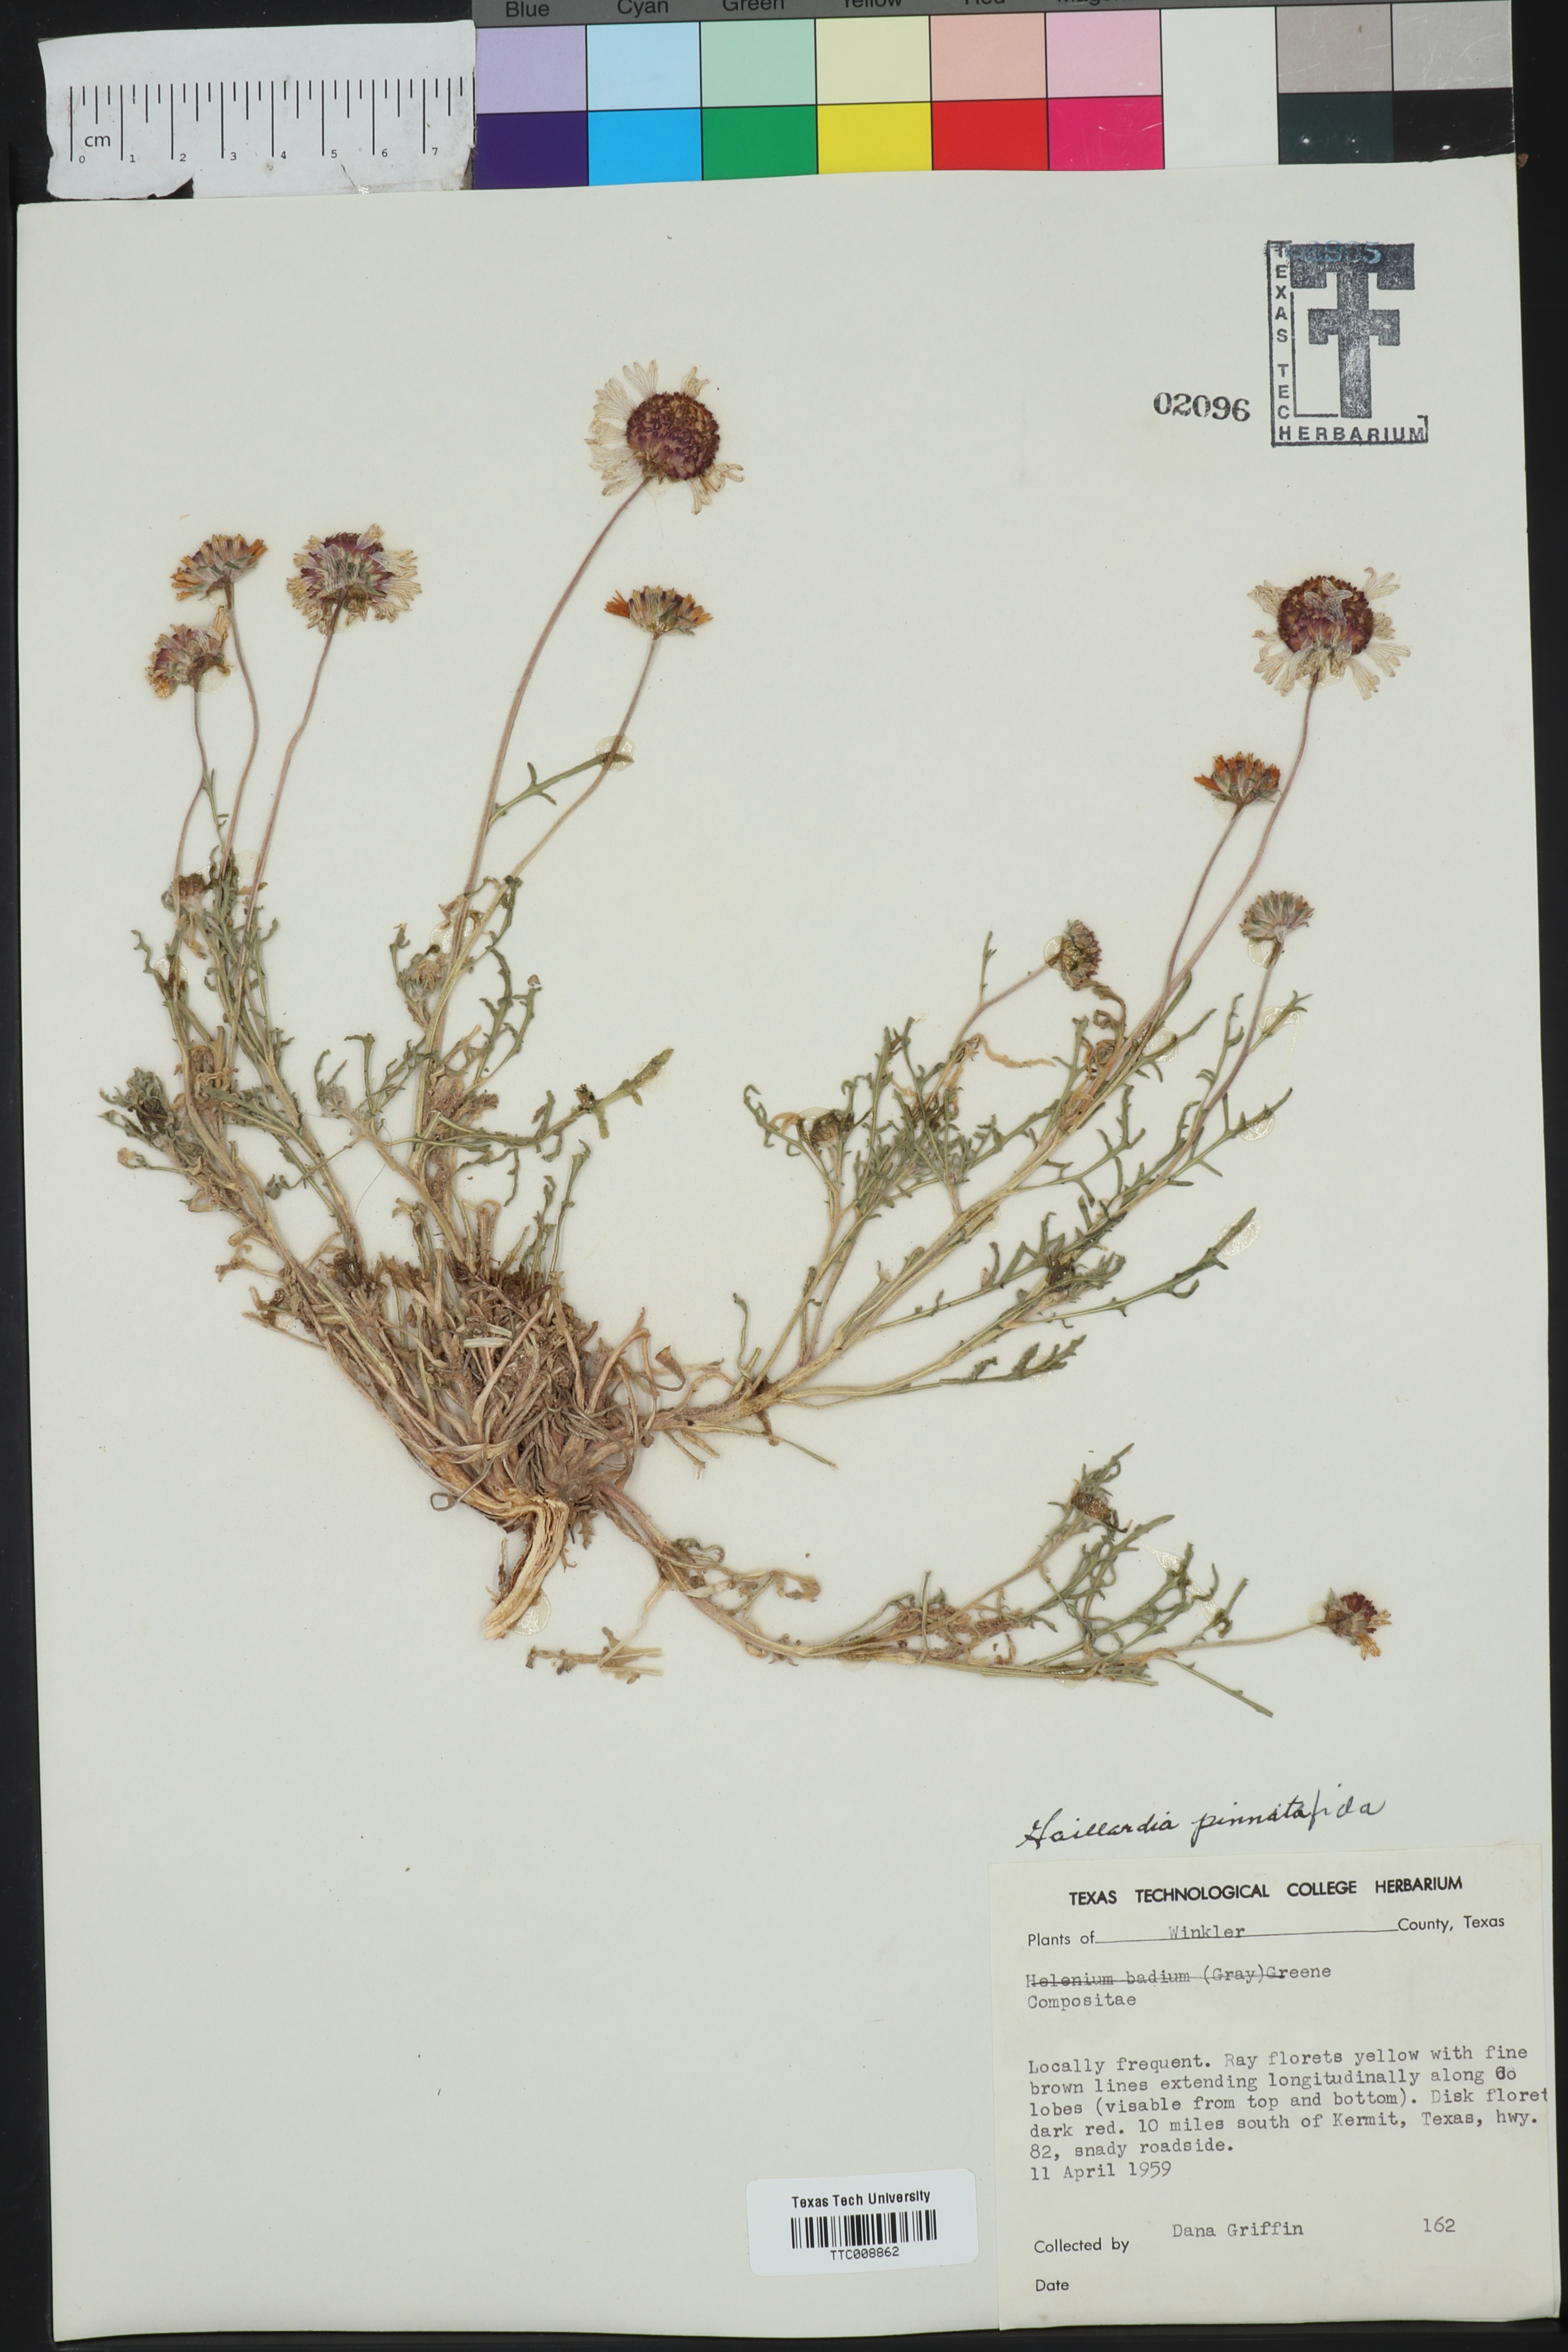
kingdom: Plantae
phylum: Tracheophyta
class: Magnoliopsida
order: Asterales
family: Asteraceae
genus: Gaillardia
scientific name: Gaillardia pinnatifida
